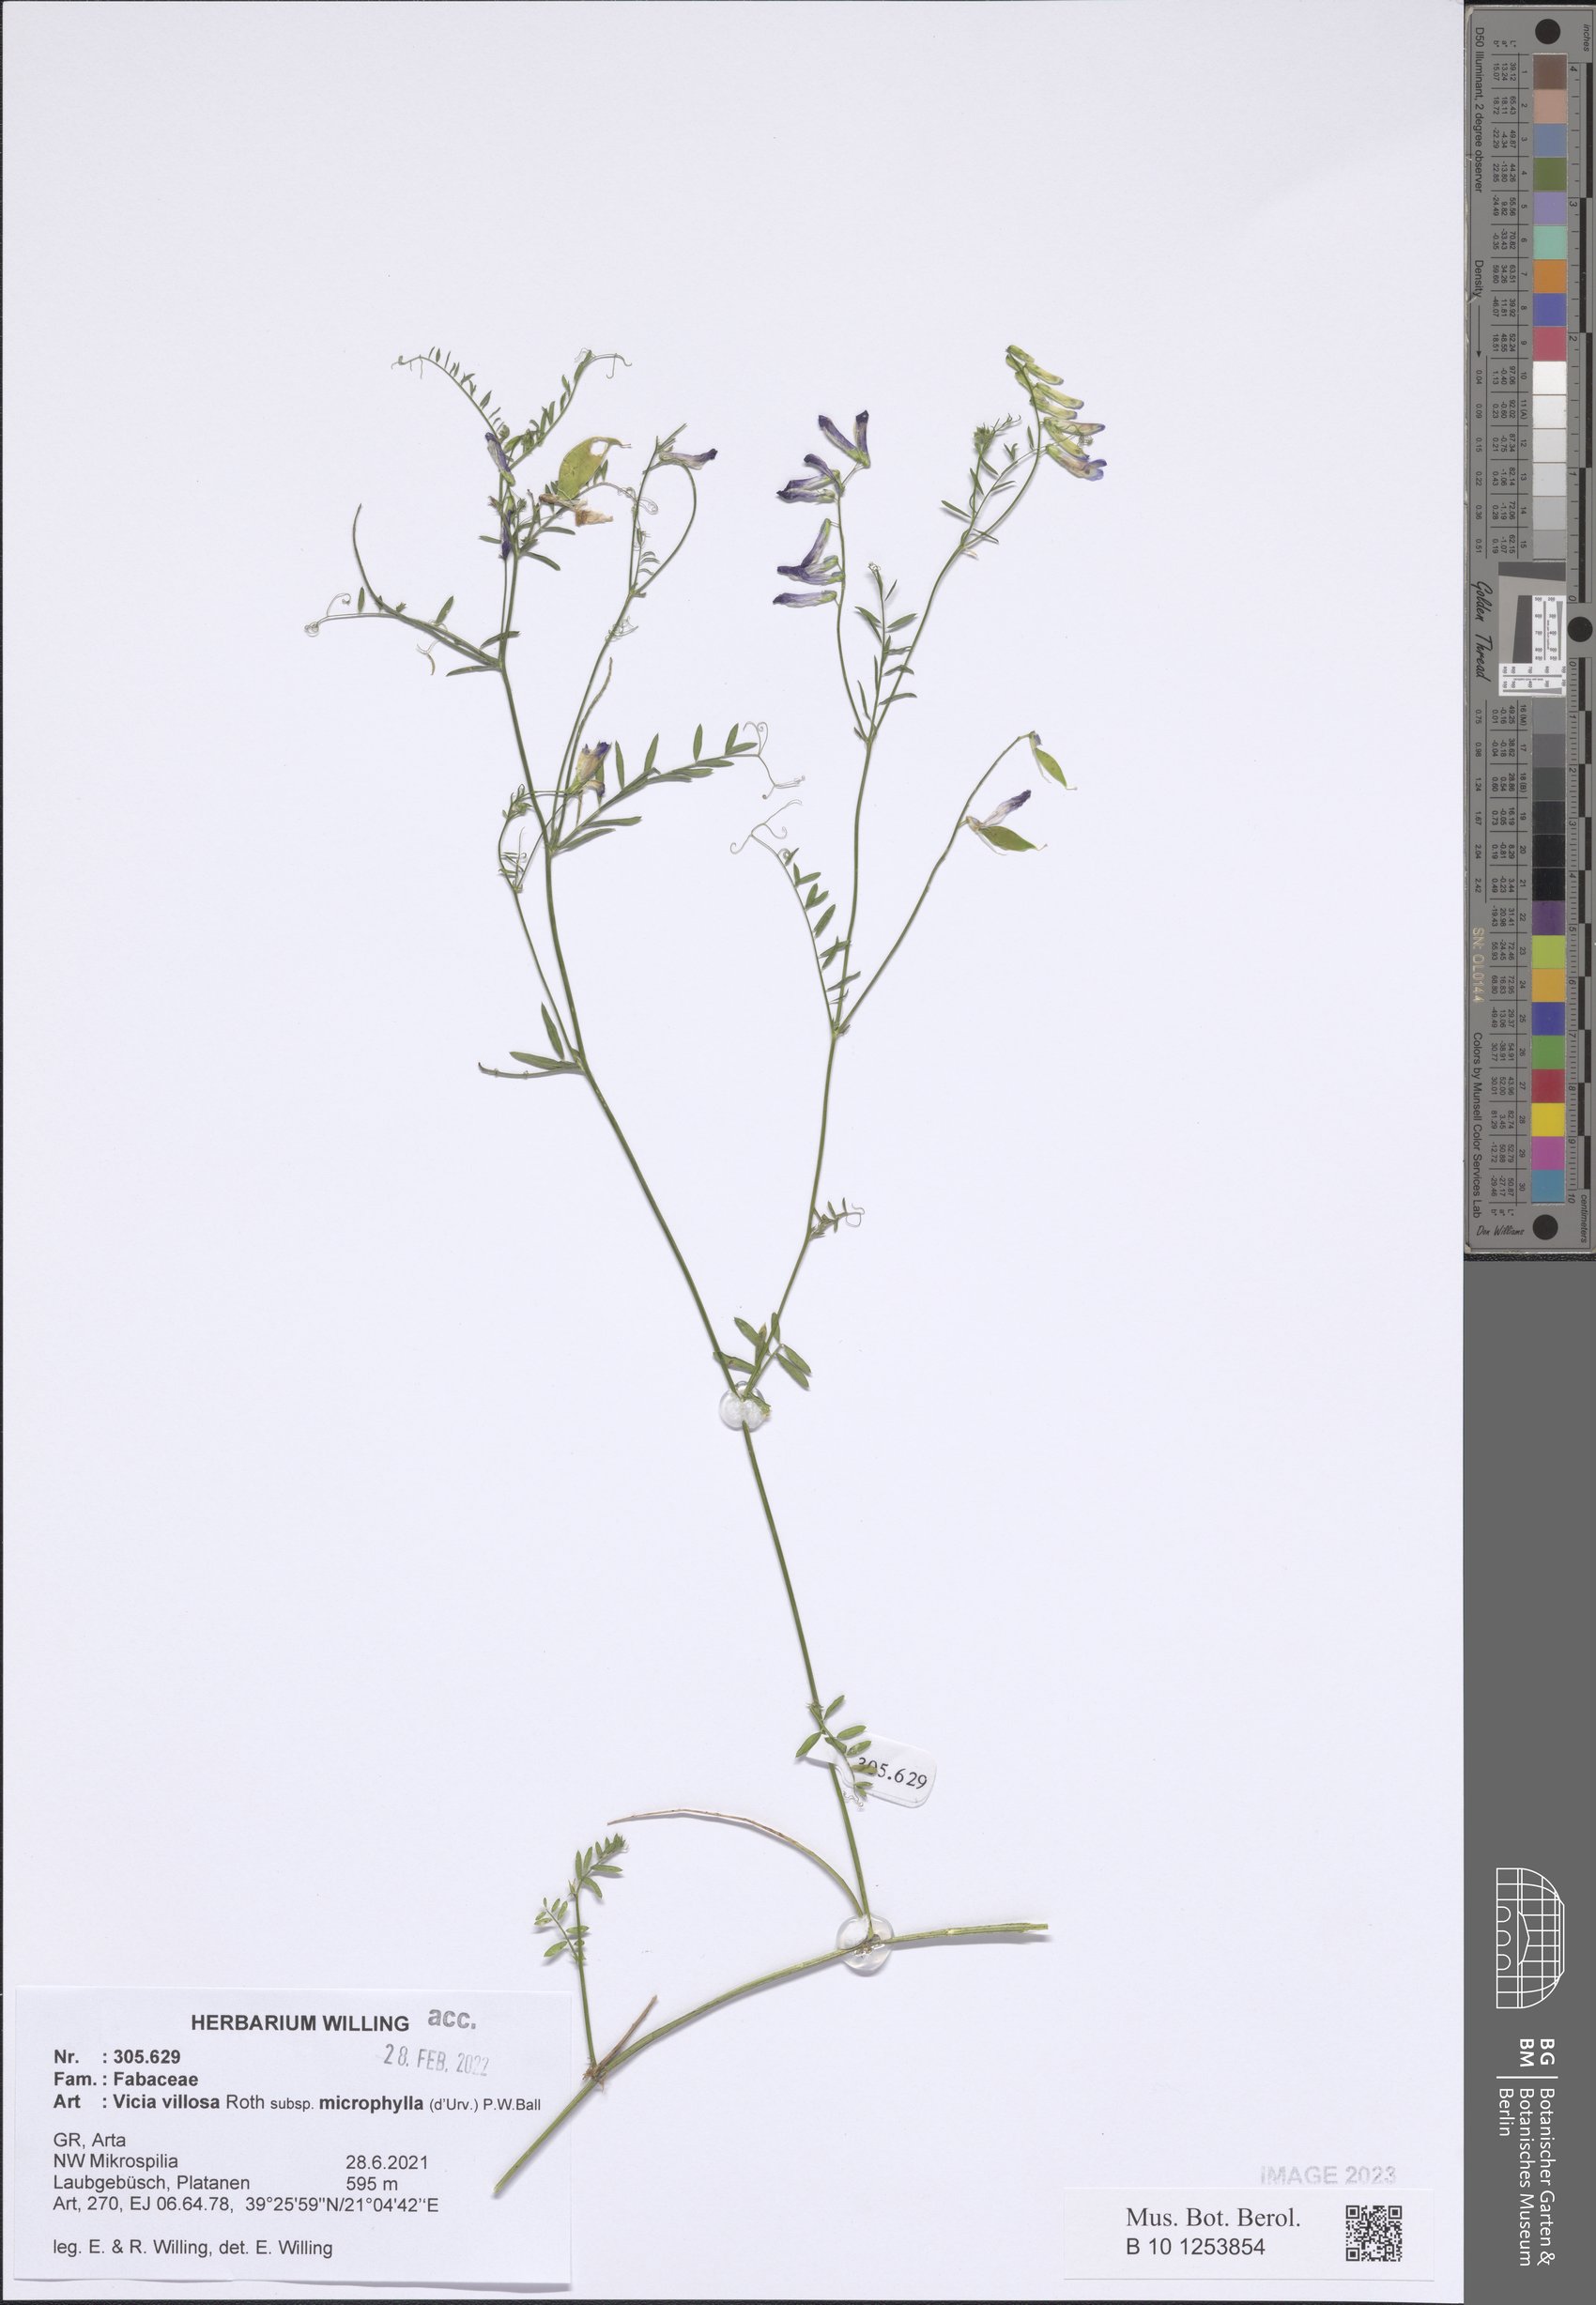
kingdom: Plantae
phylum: Tracheophyta
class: Magnoliopsida
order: Fabales
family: Fabaceae
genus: Vicia
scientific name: Vicia villosa
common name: Fodder vetch
